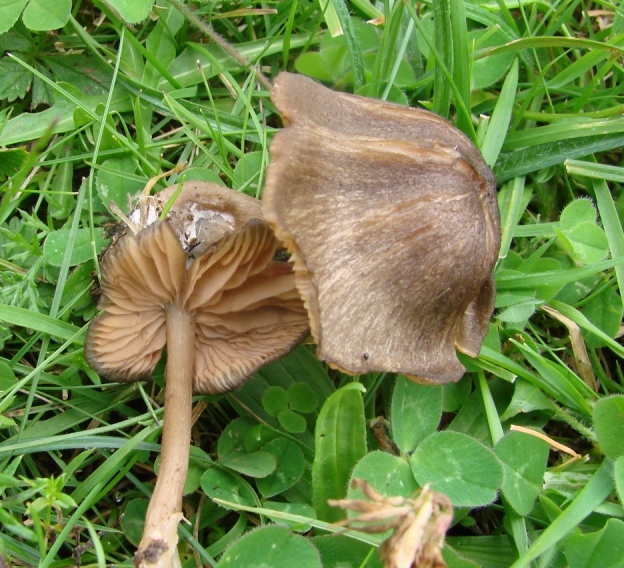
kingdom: Fungi
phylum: Basidiomycota
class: Agaricomycetes
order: Agaricales
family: Entolomataceae
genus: Entoloma
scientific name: Entoloma
